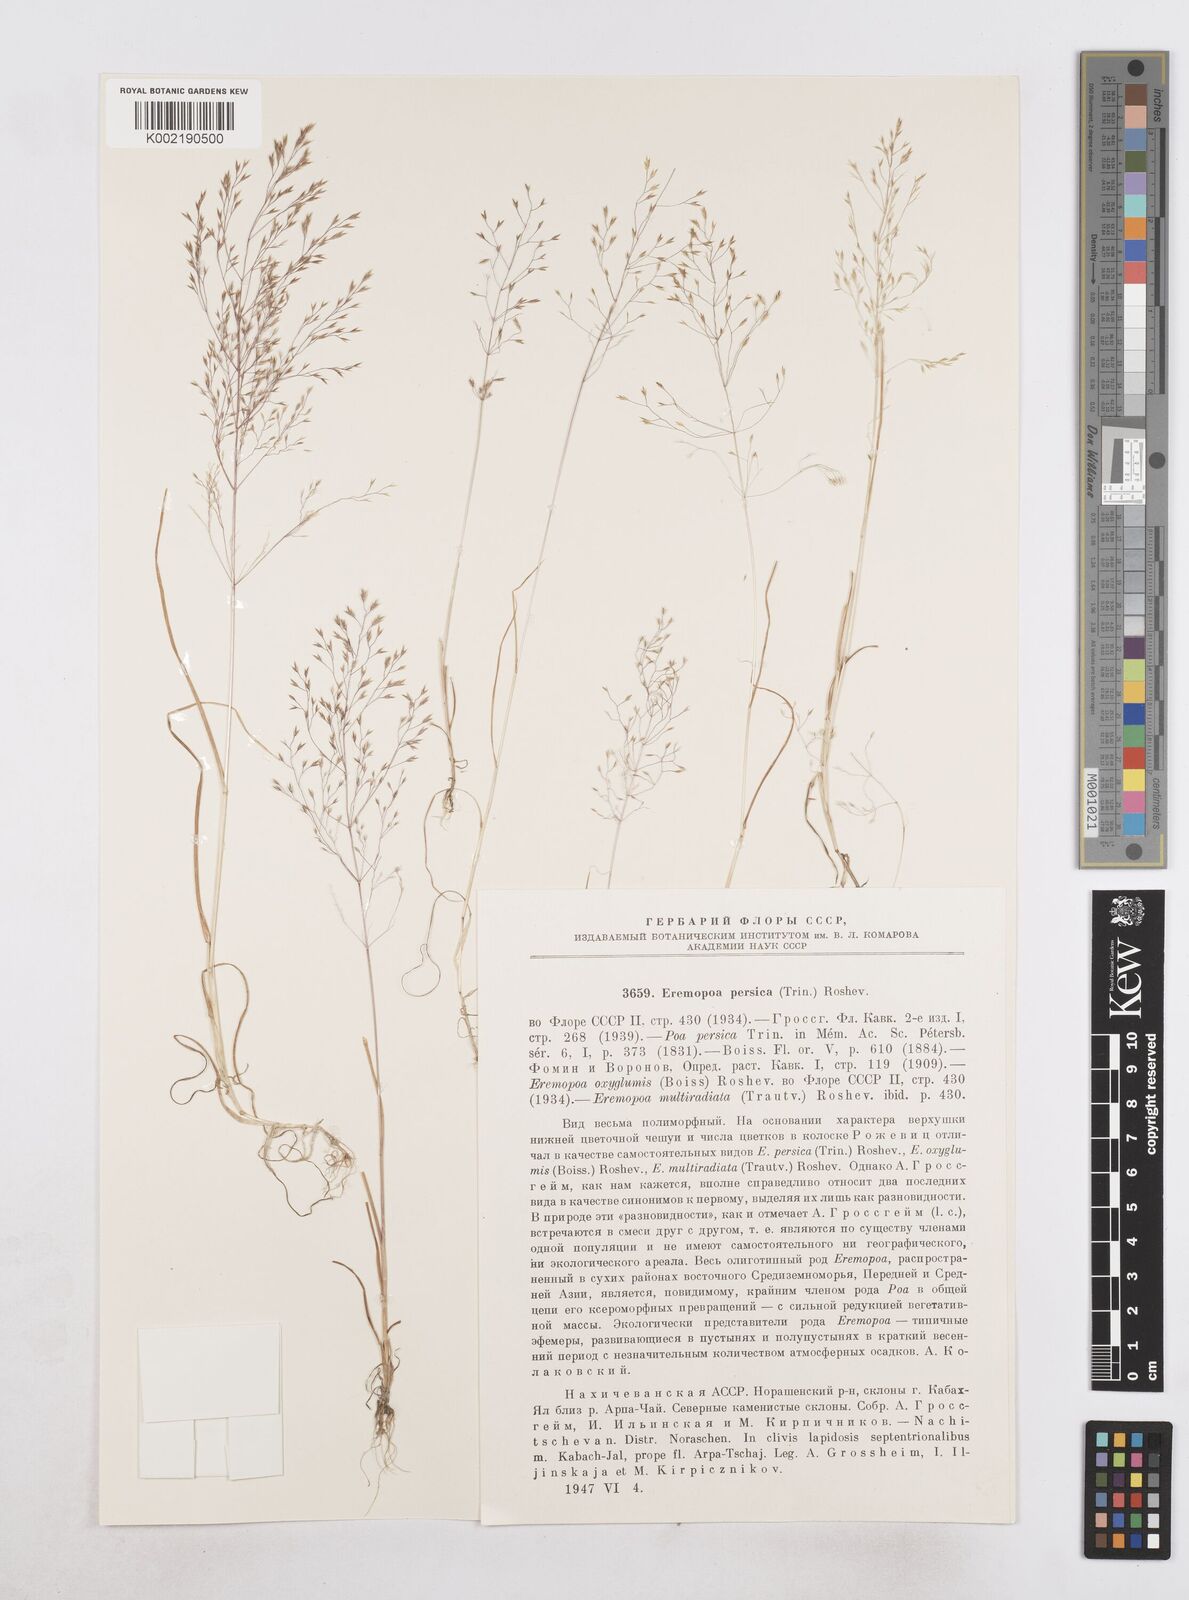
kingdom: Plantae
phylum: Tracheophyta
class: Liliopsida
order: Poales
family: Poaceae
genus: Poa
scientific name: Poa persica
